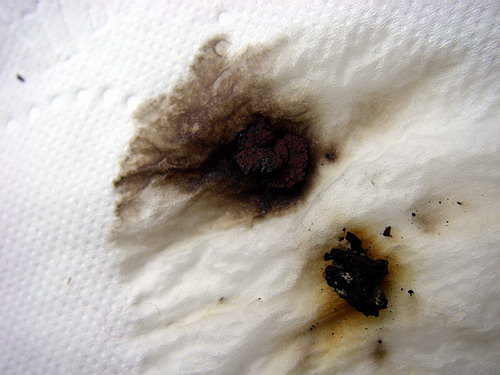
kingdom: Fungi
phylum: Ascomycota
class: Sordariomycetes
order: Xylariales
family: Hypoxylaceae
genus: Hypoxylon
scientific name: Hypoxylon macrocarpum
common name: skorpe-kulbær
